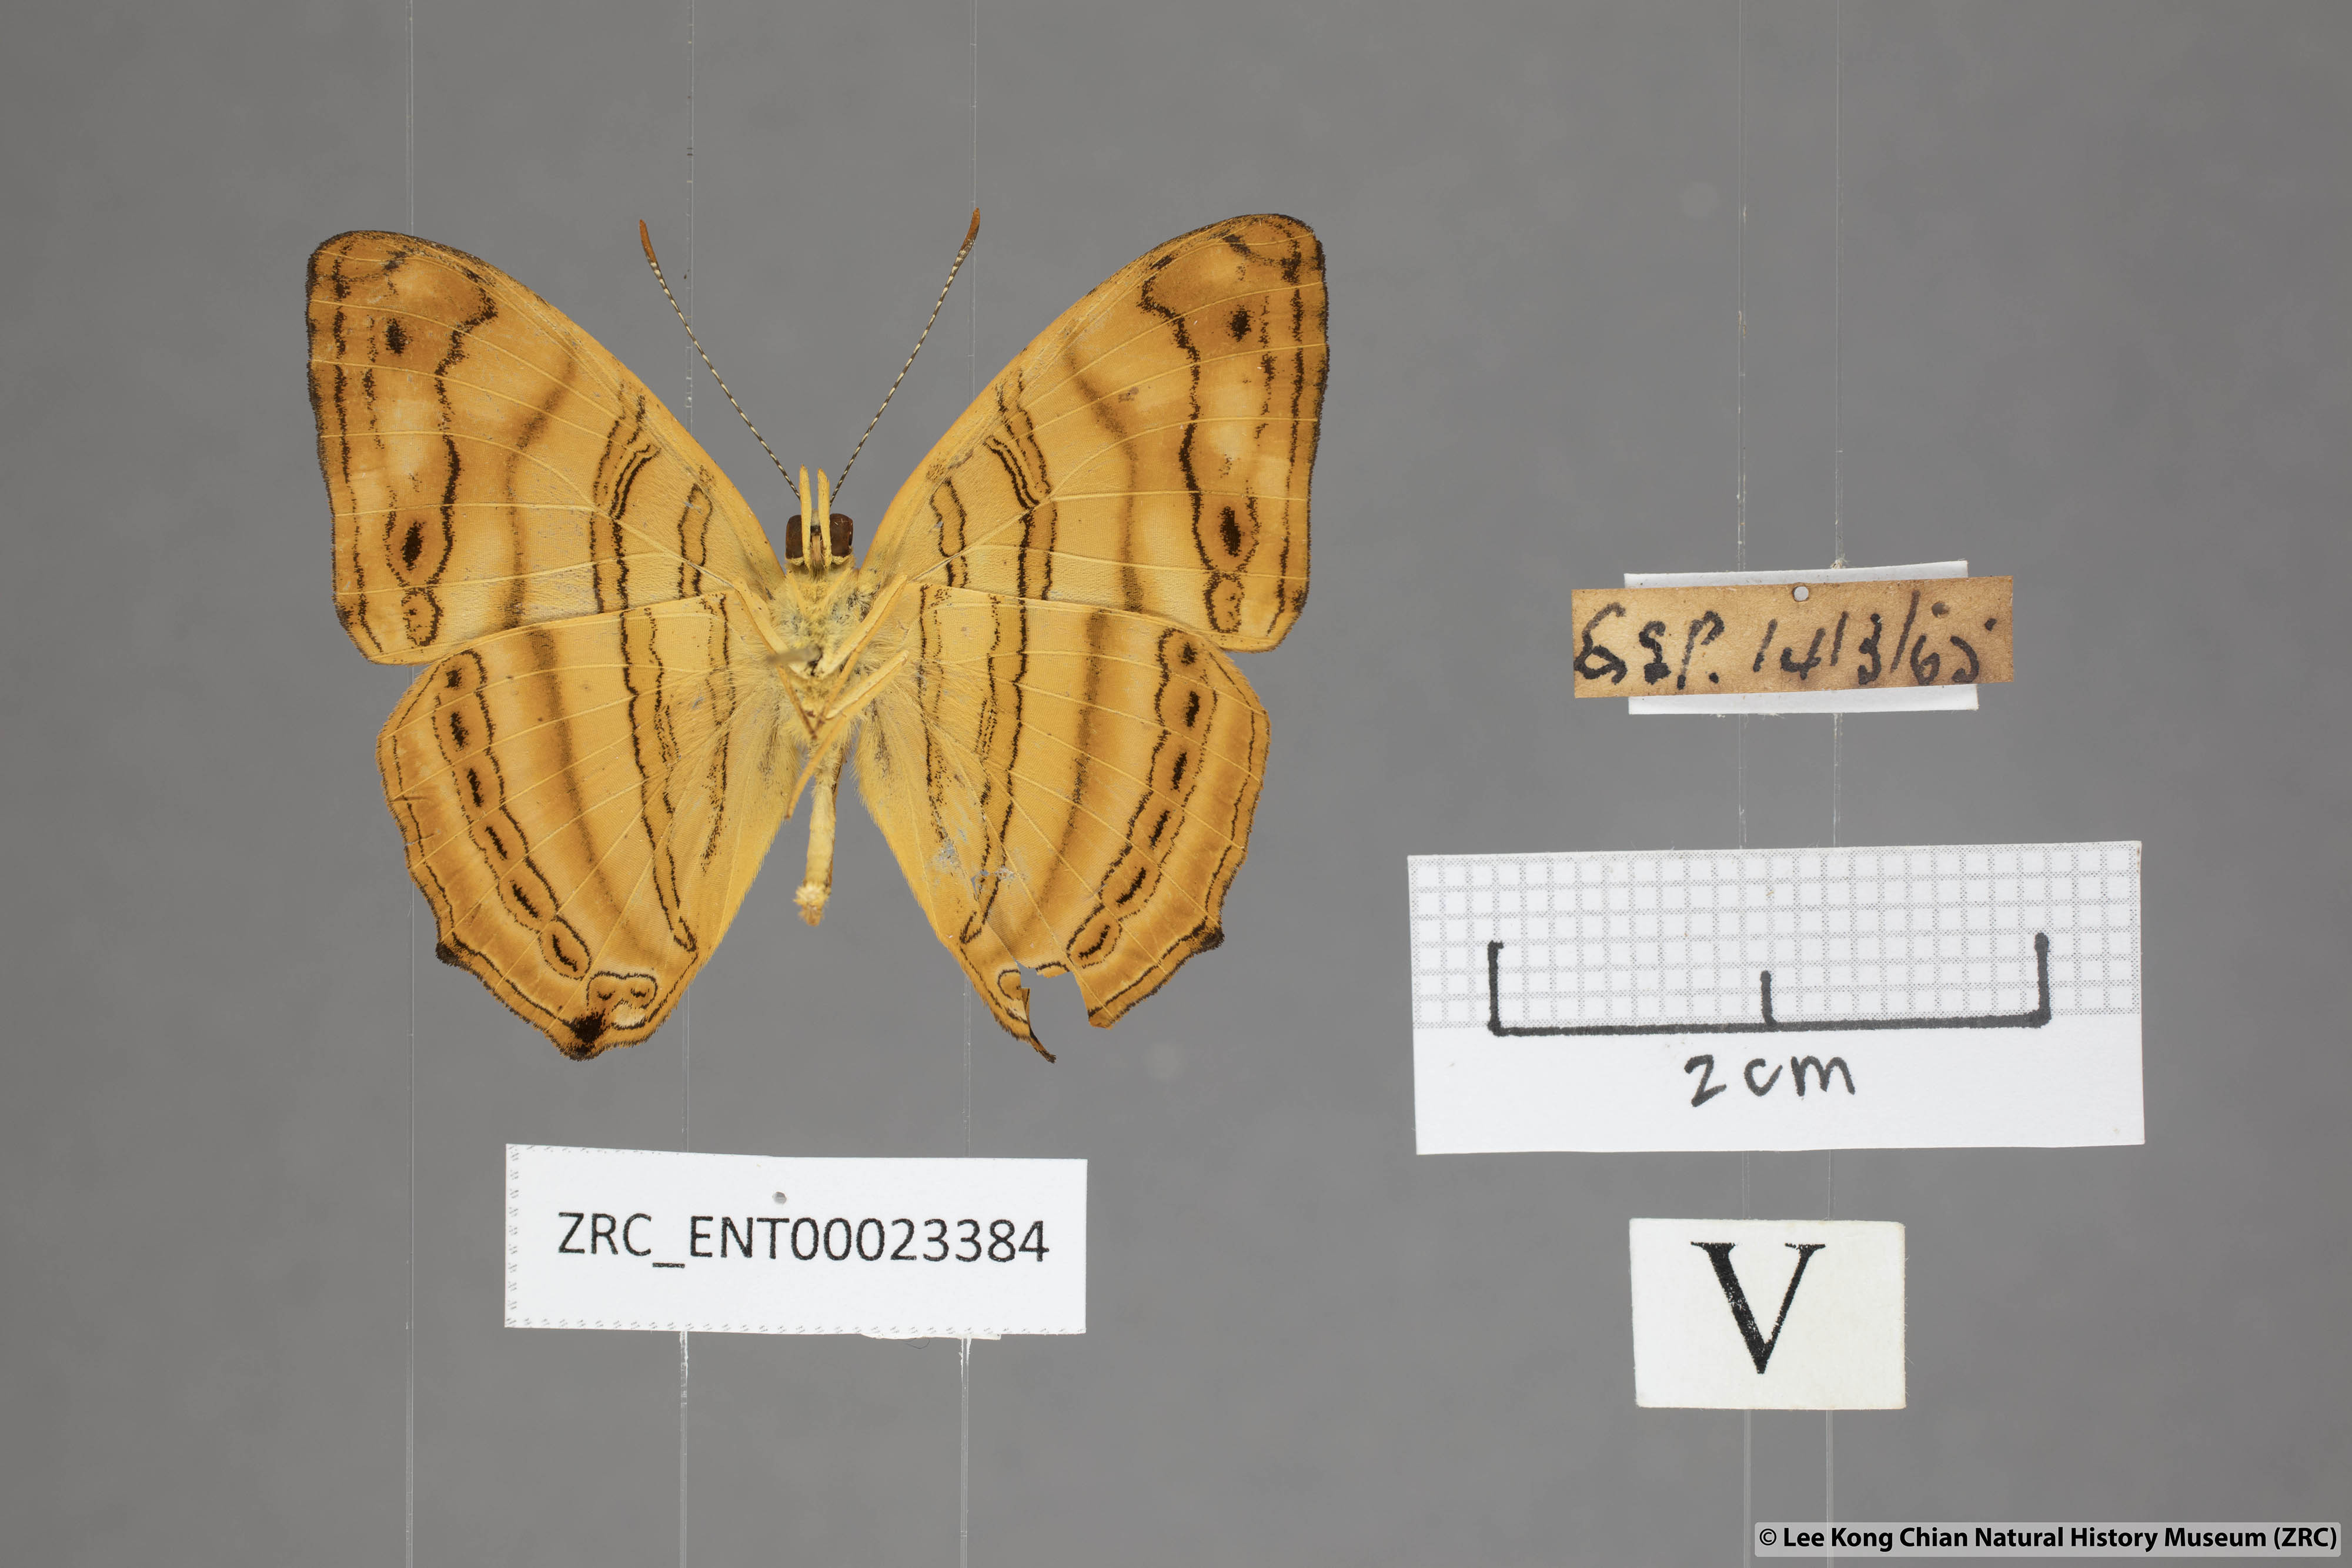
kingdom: Animalia
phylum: Arthropoda
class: Insecta
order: Lepidoptera
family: Nymphalidae
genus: Chersonesia
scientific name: Chersonesia rahria
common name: Wavy maplet
